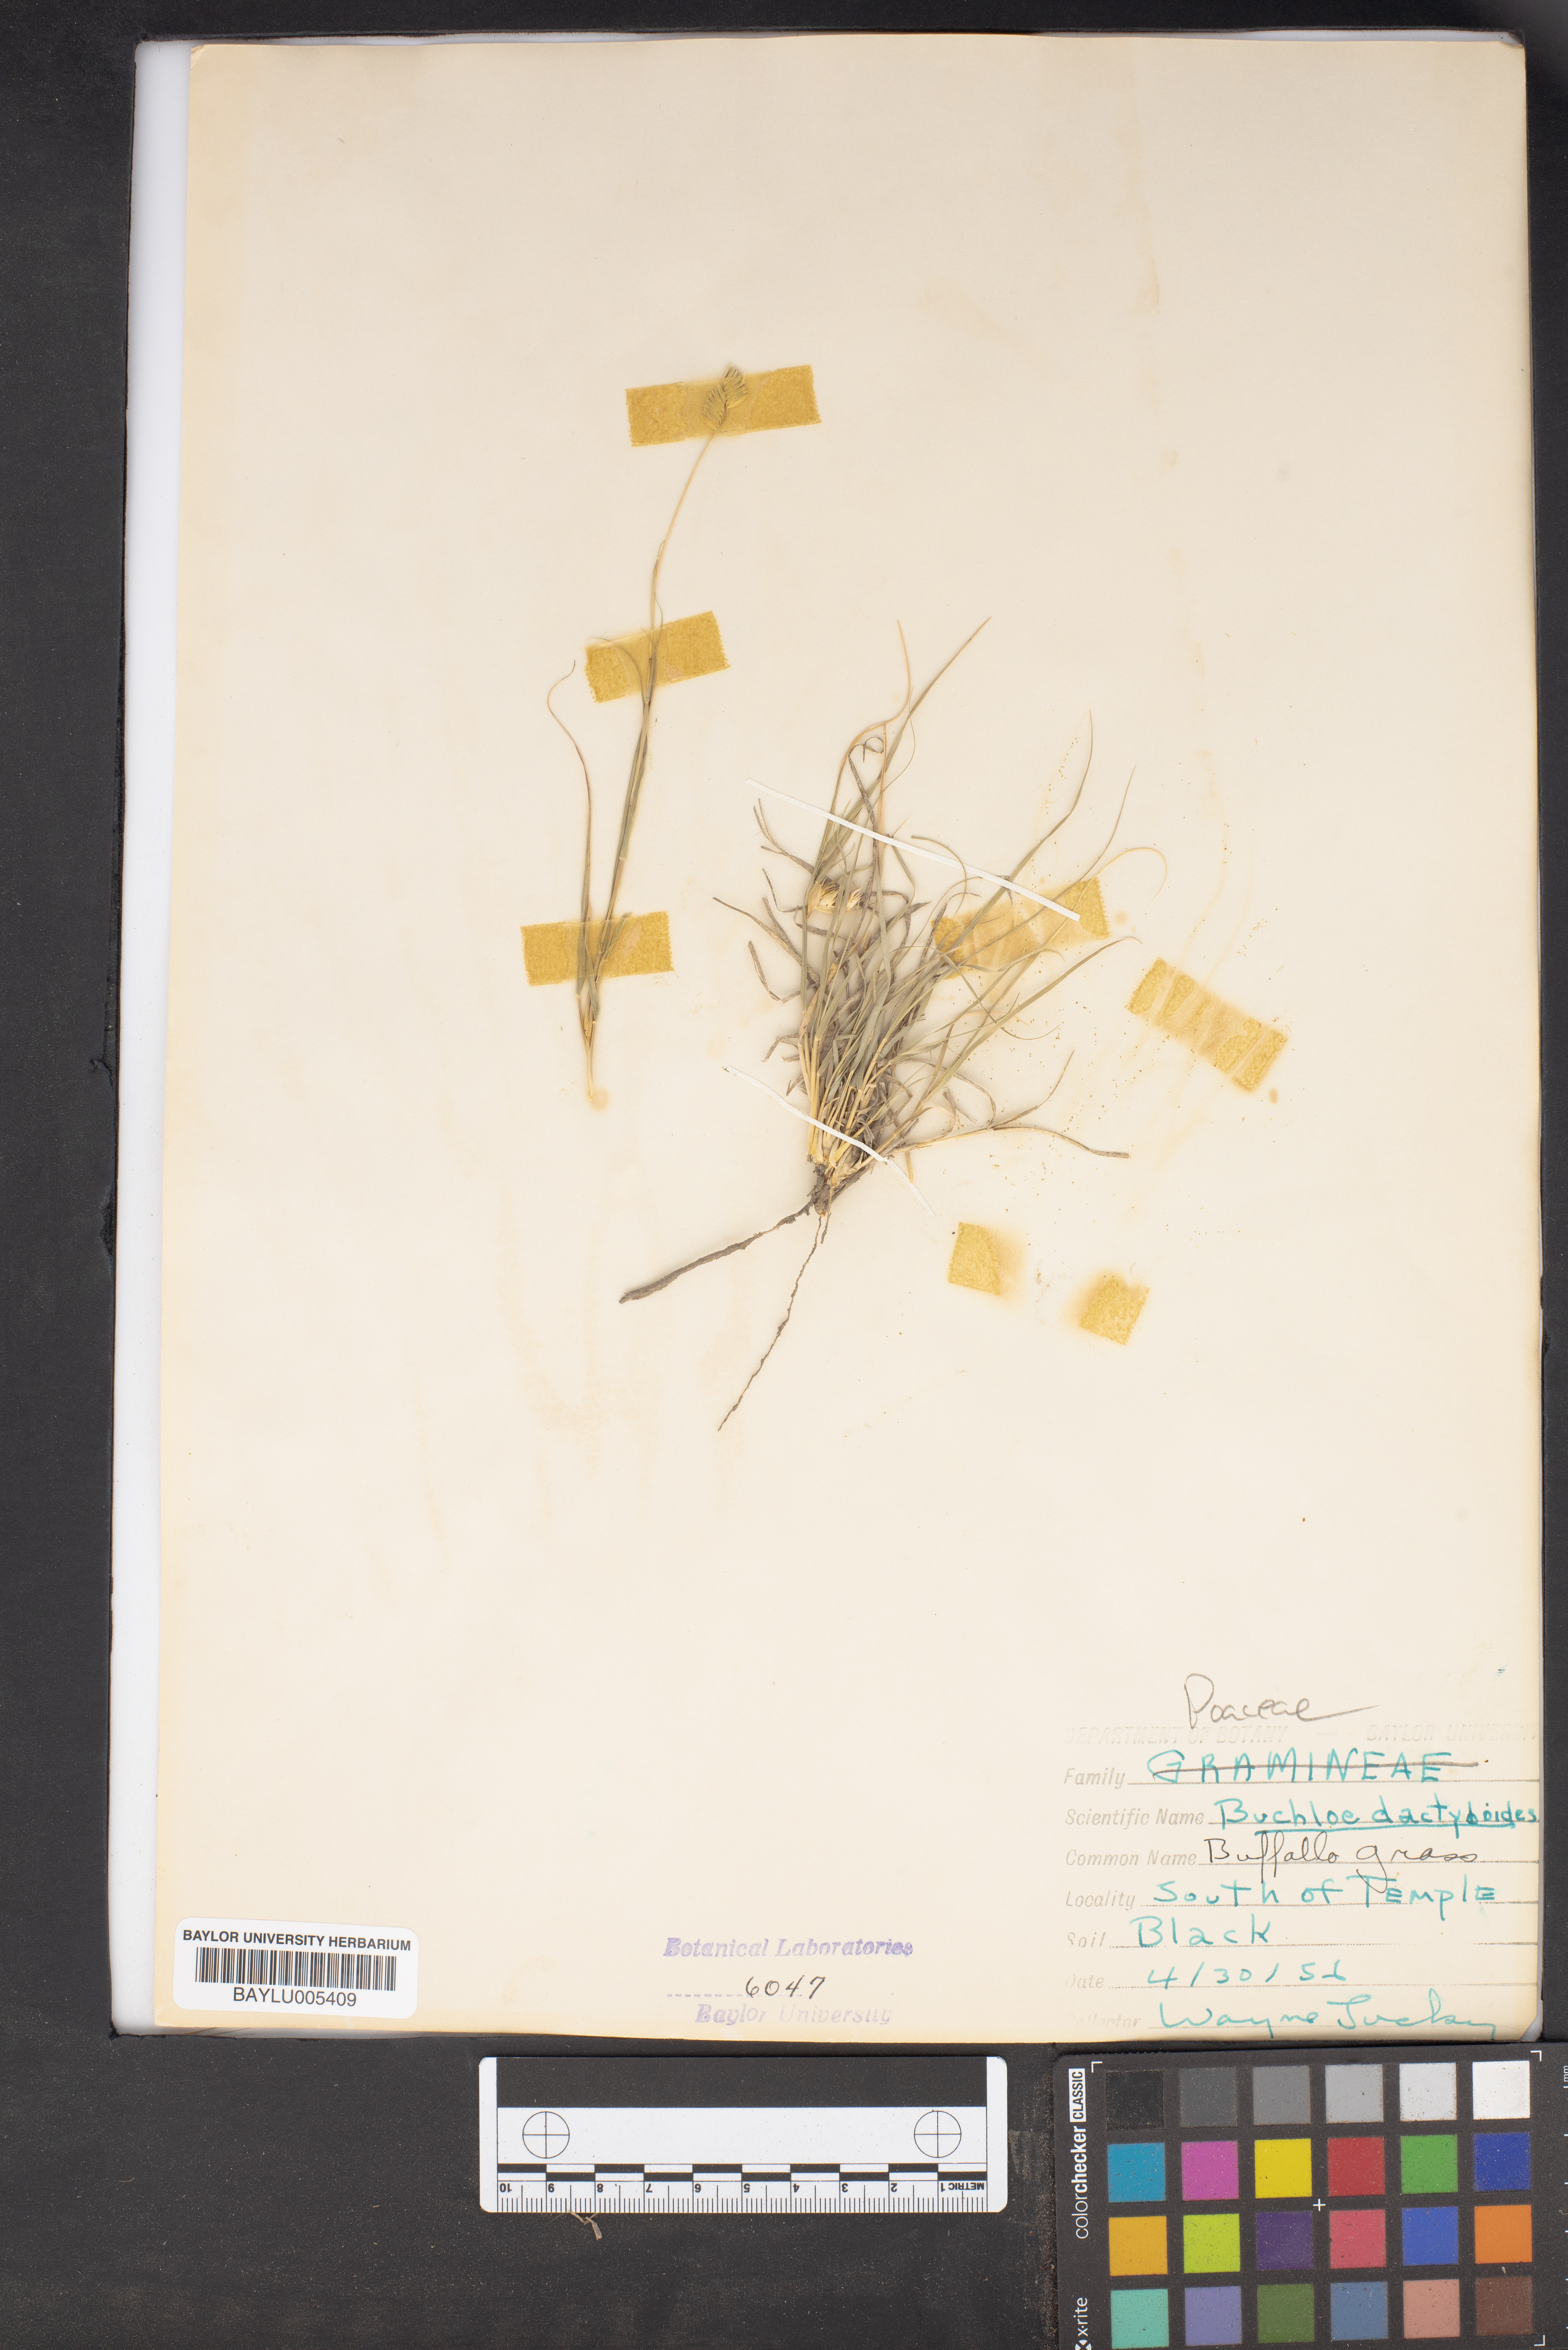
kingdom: Plantae
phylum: Tracheophyta
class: Liliopsida
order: Poales
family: Poaceae
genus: Bouteloua
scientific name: Bouteloua dactyloides
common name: Buffalo grass
